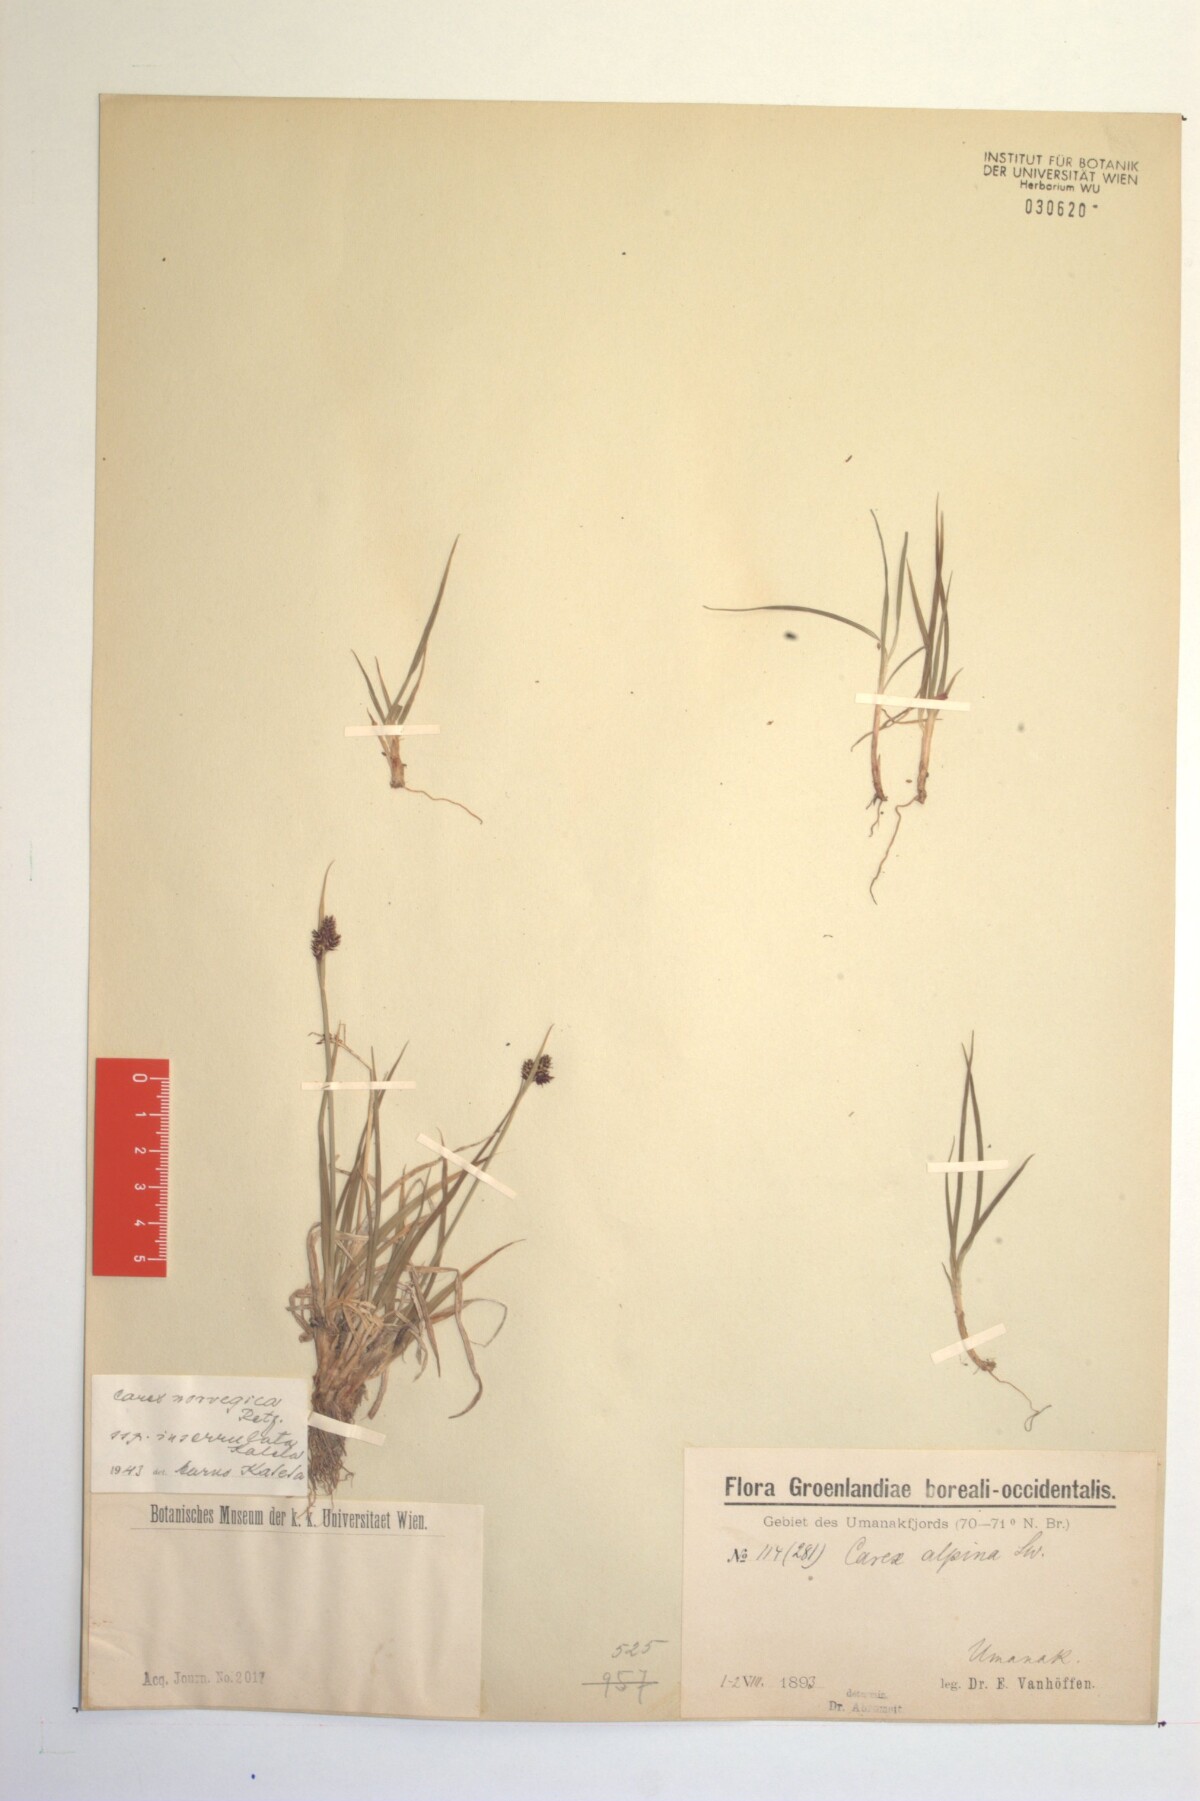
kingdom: Plantae
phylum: Tracheophyta
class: Liliopsida
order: Poales
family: Cyperaceae
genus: Carex
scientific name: Carex norvegica
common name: Close-headed alpine-sedge
